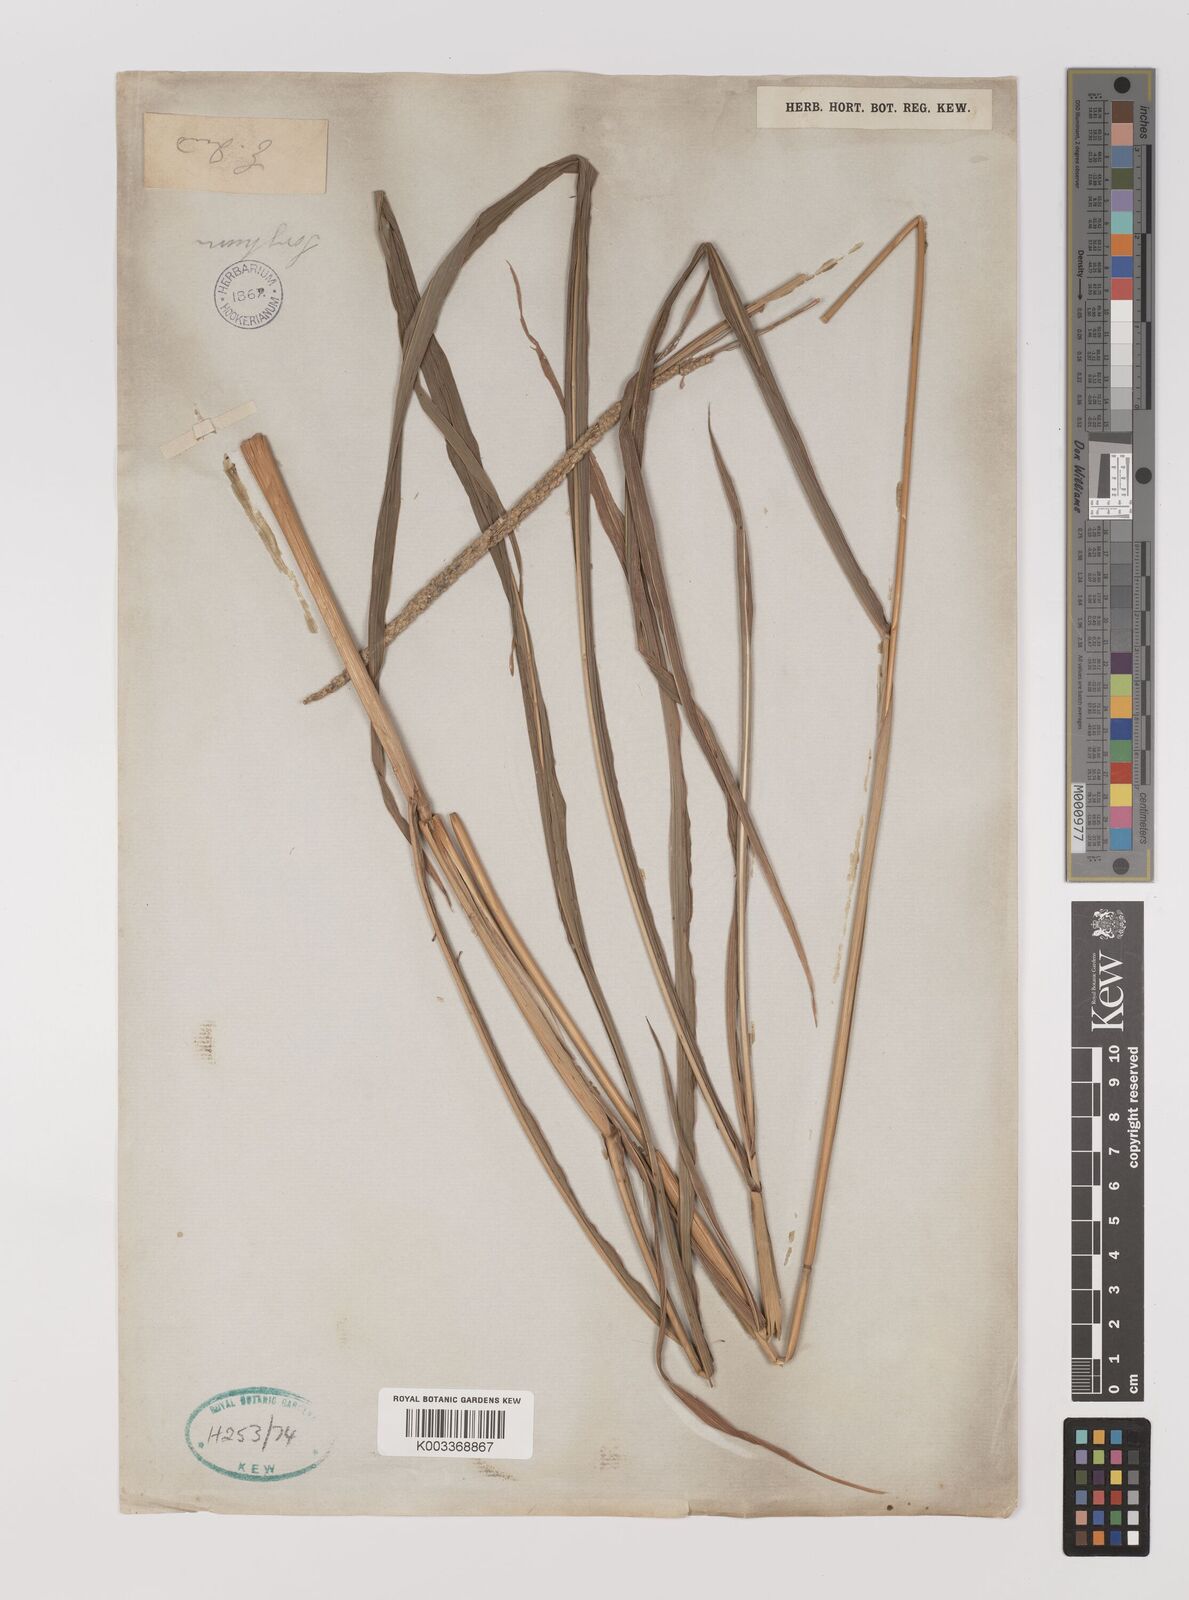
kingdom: Plantae
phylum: Tracheophyta
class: Liliopsida
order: Poales
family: Poaceae
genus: Panicum
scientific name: Panicum
